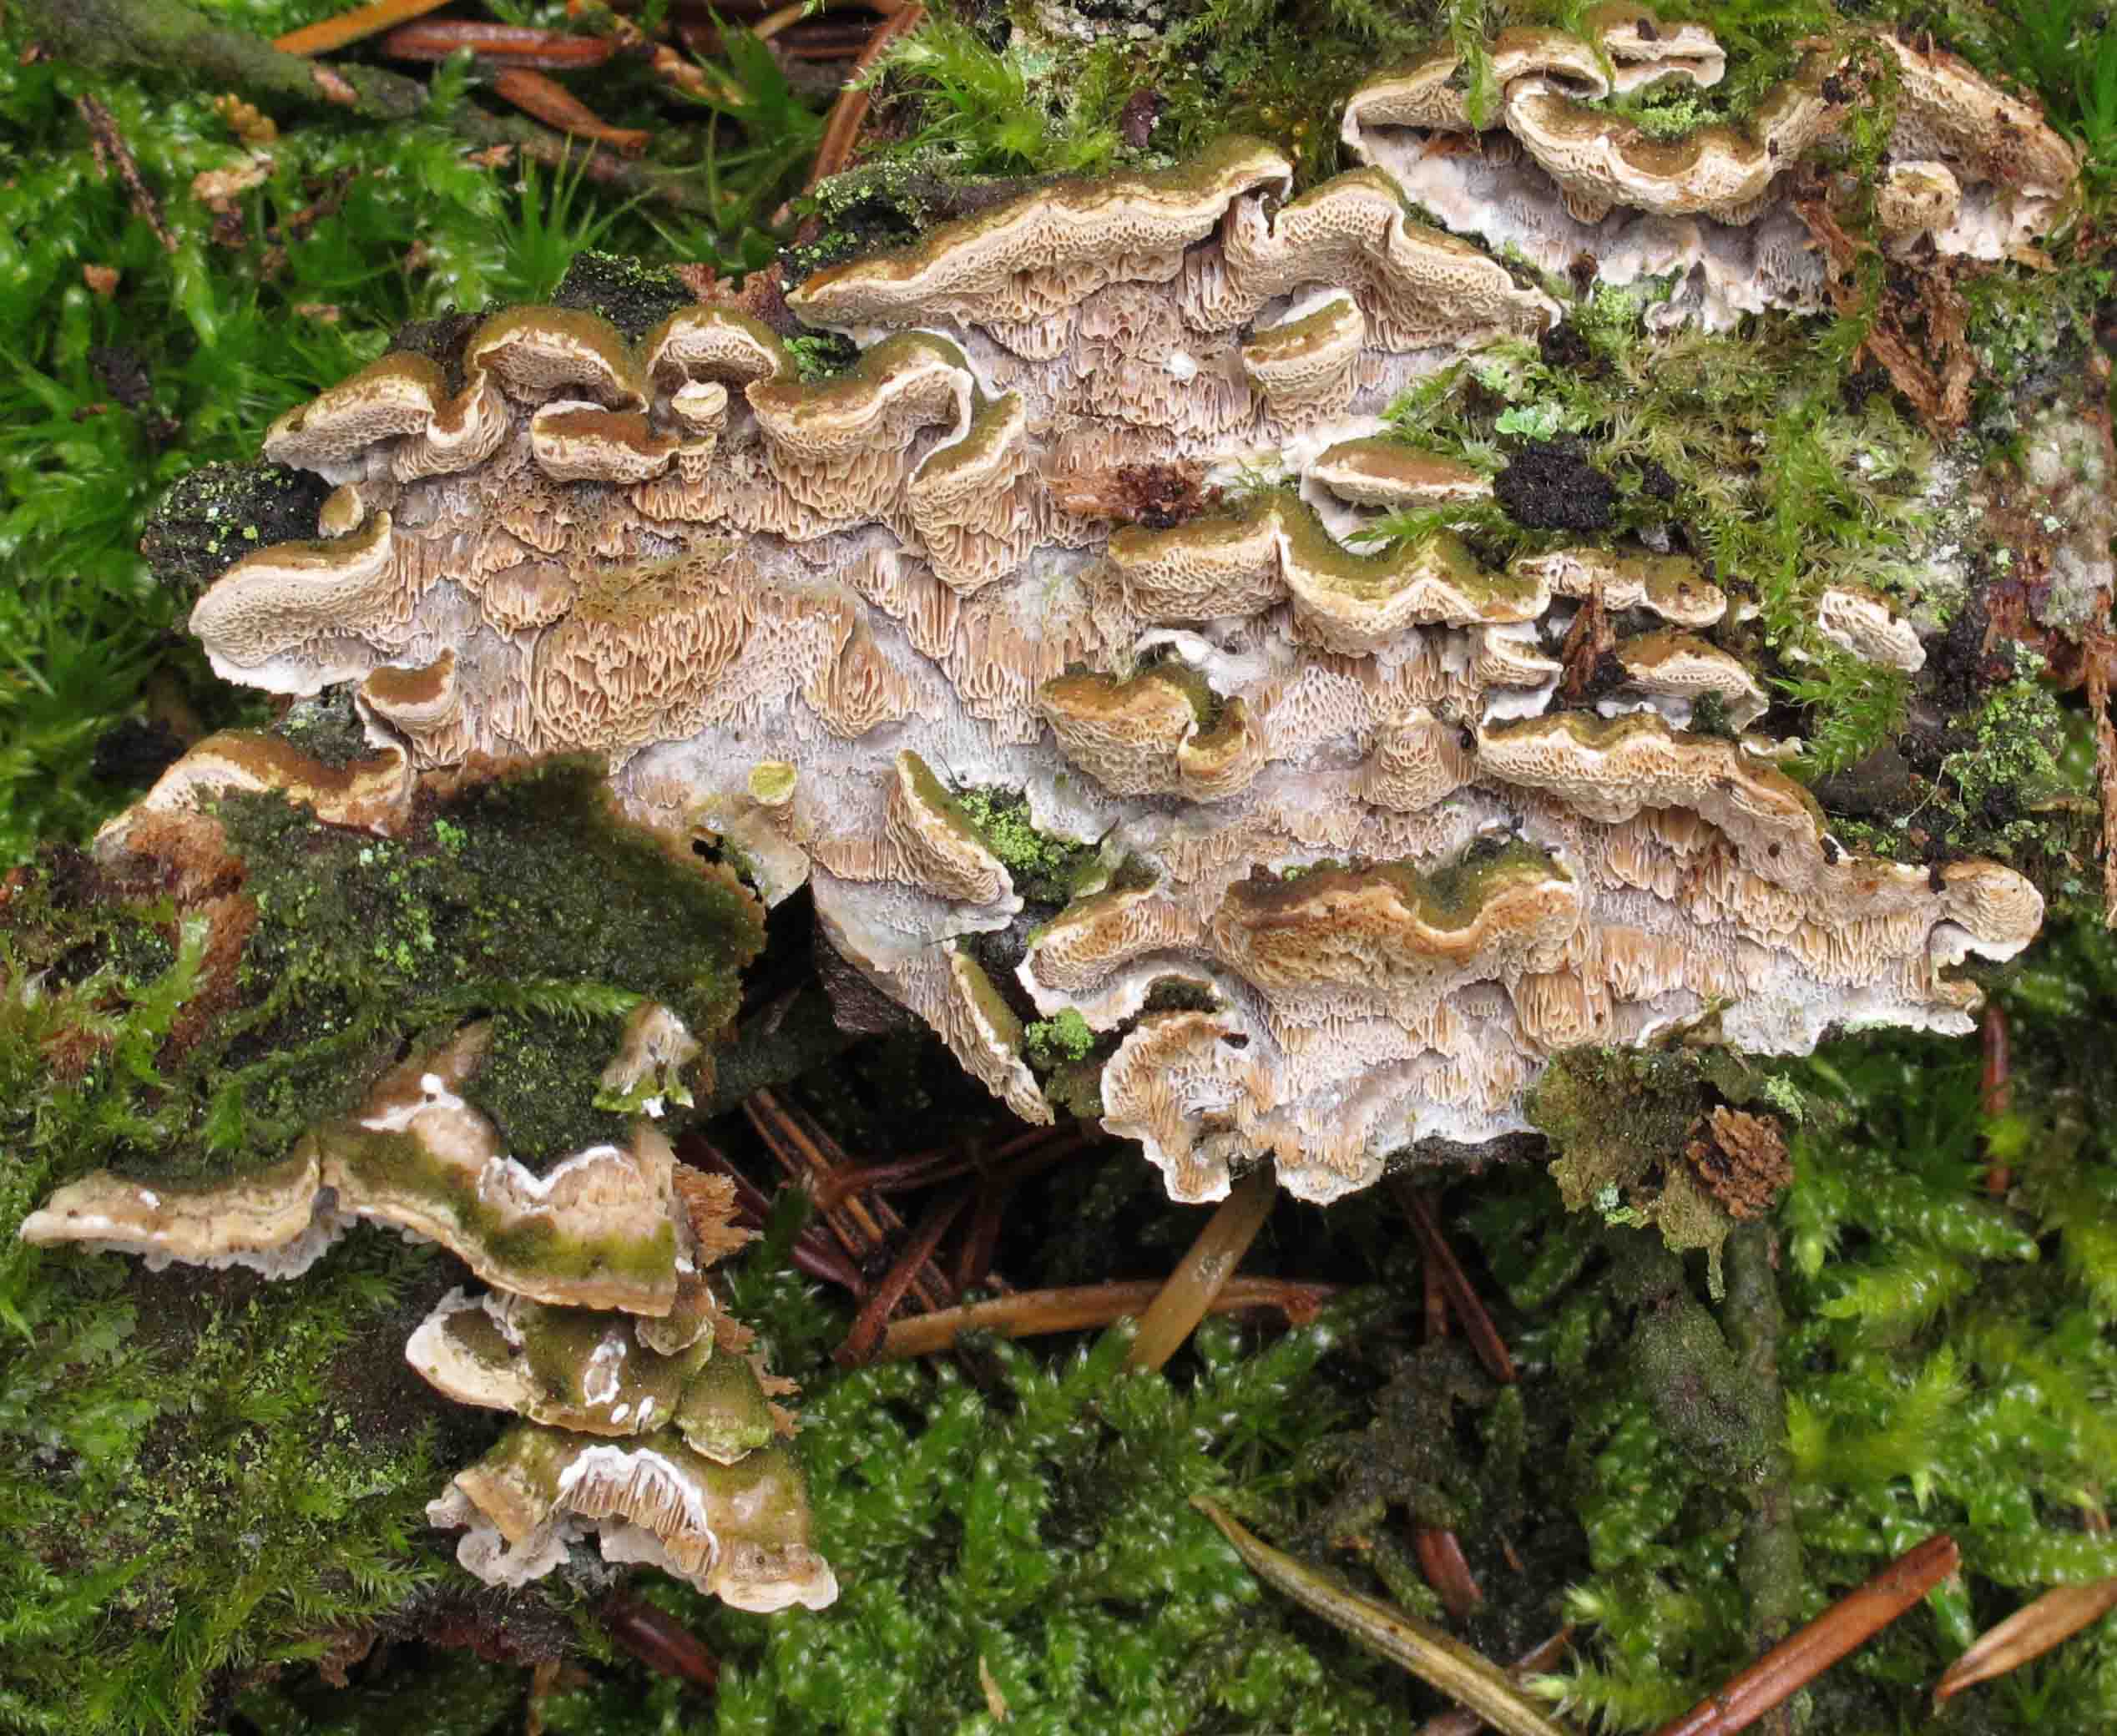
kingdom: Fungi
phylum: Basidiomycota
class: Agaricomycetes
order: Polyporales
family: Incrustoporiaceae
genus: Skeletocutis
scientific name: Skeletocutis carneogrisea
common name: rødgrå krystalporesvamp
